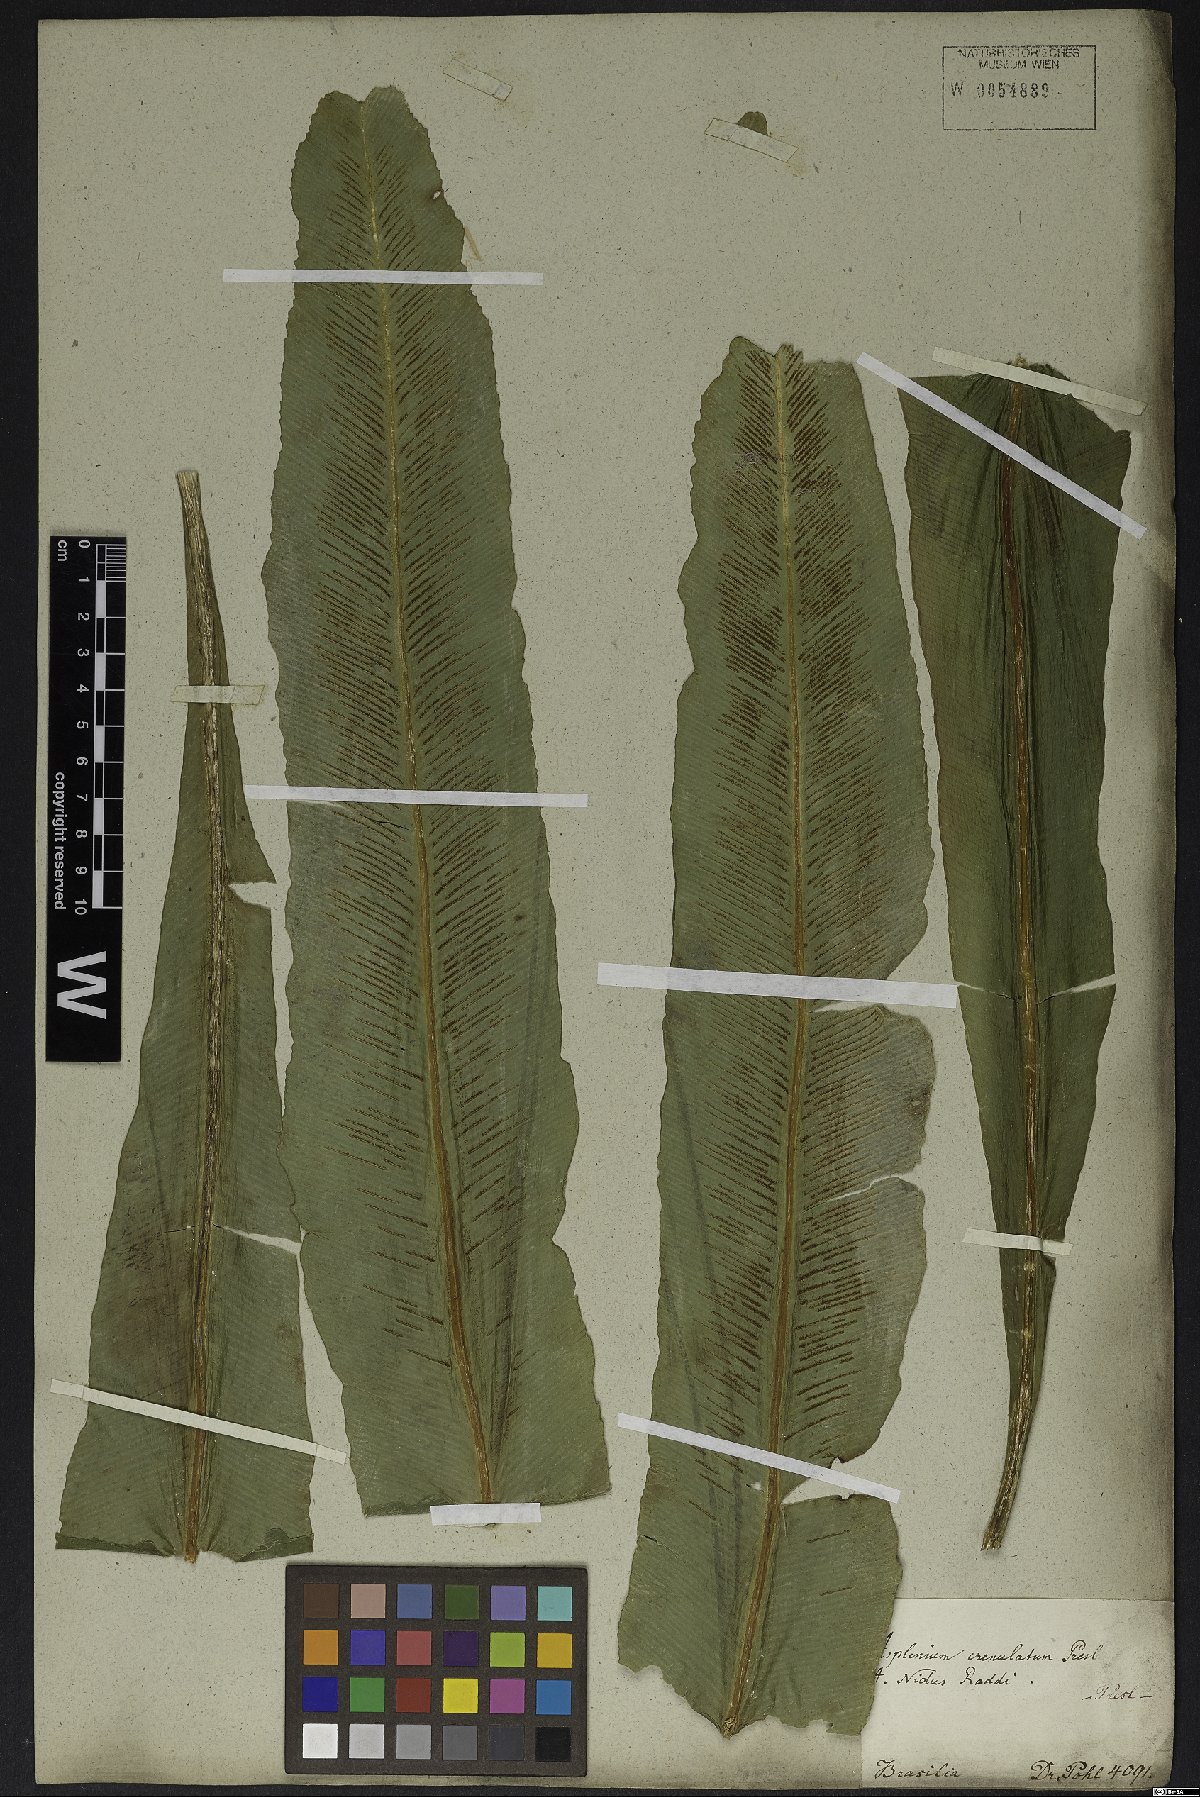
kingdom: Plantae
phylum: Tracheophyta
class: Polypodiopsida
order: Polypodiales
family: Aspleniaceae
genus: Asplenium
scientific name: Asplenium serratum
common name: Wild birdnest fern
